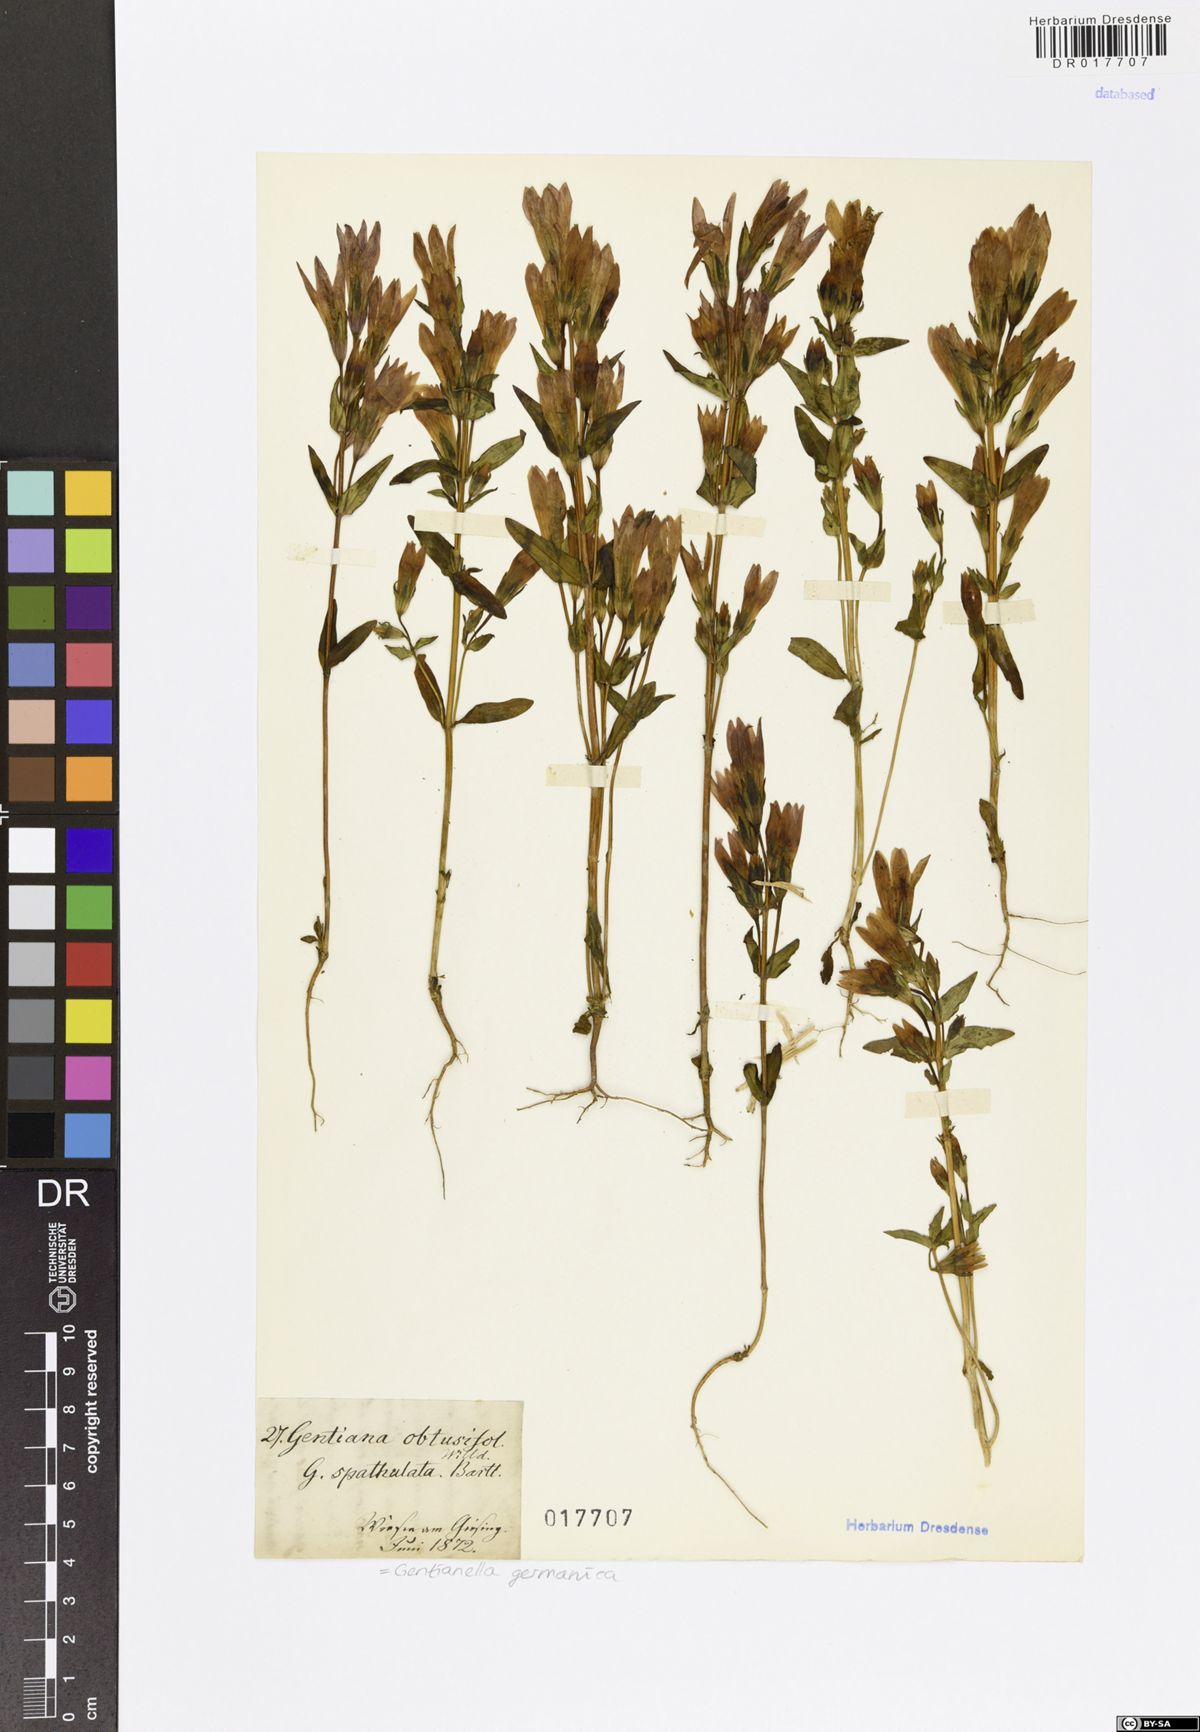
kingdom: Plantae
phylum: Tracheophyta
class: Magnoliopsida
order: Gentianales
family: Gentianaceae
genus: Gentianella
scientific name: Gentianella praecox
